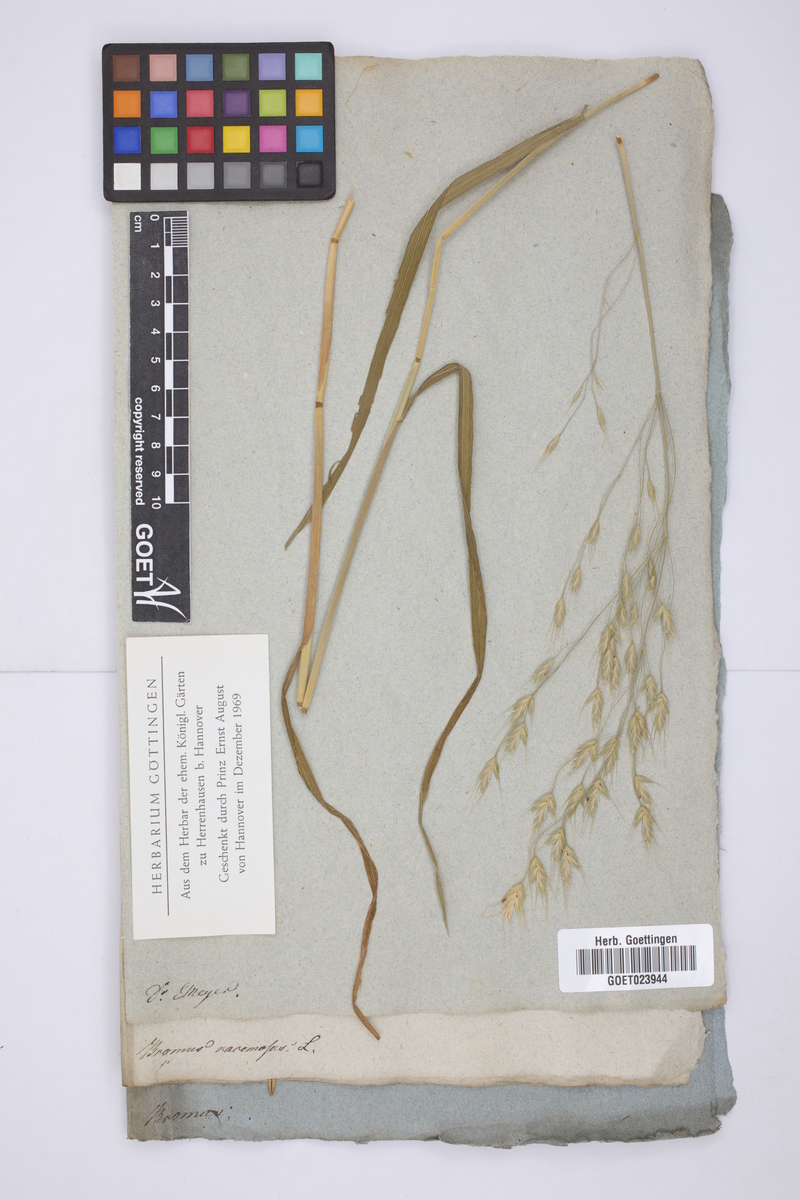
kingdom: Plantae
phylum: Tracheophyta
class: Liliopsida
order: Poales
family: Poaceae
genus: Bromus
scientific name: Bromus racemosus
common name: Bald brome
